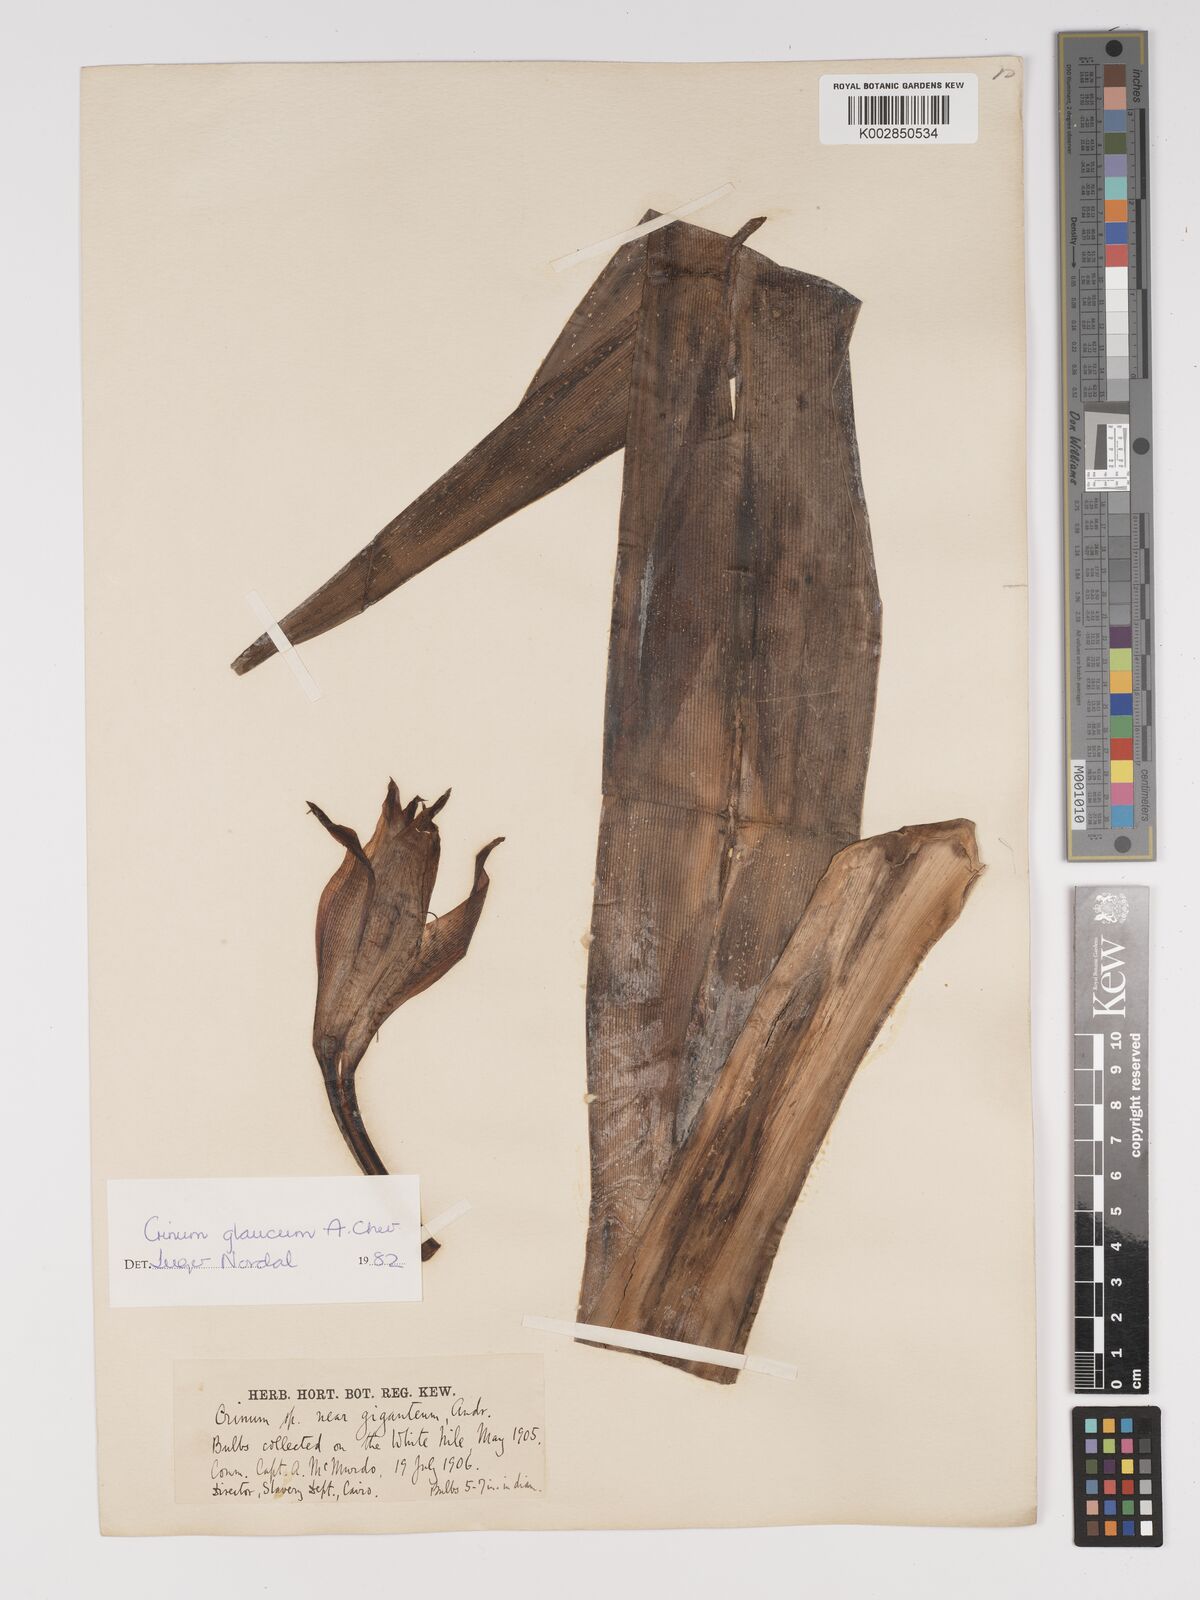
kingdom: Plantae
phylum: Tracheophyta
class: Liliopsida
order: Asparagales
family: Amaryllidaceae
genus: Crinum
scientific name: Crinum glaucum
